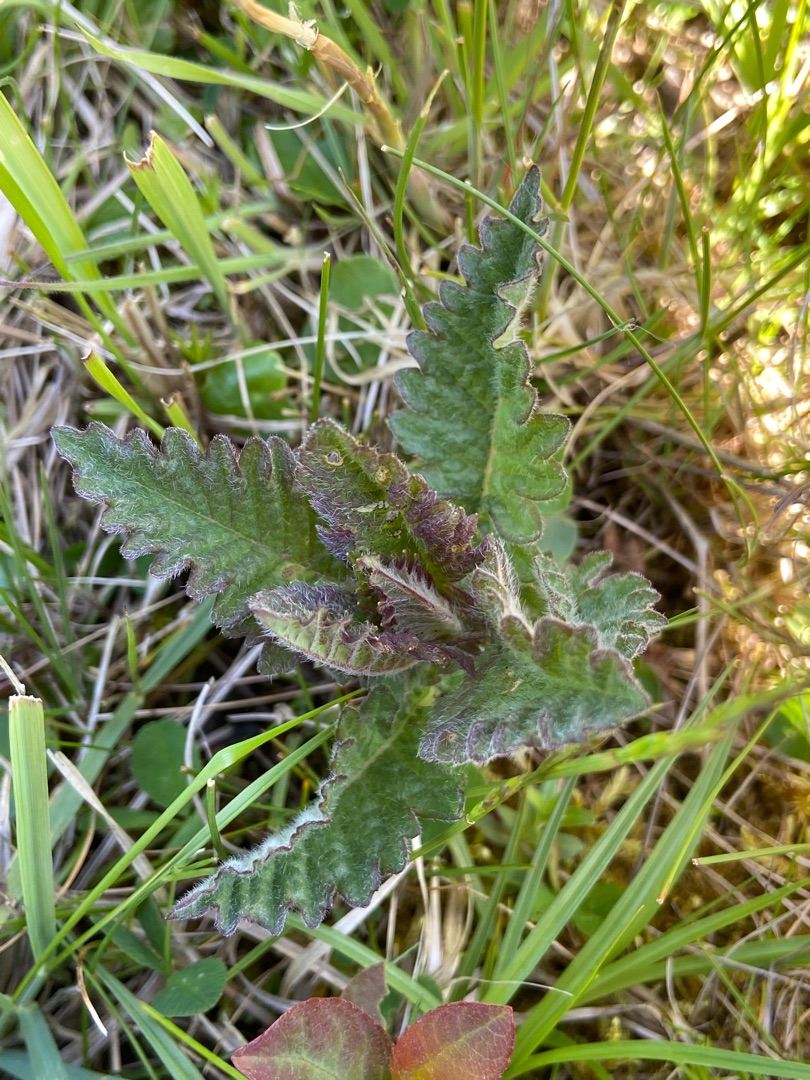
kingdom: Plantae
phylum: Tracheophyta
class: Magnoliopsida
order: Lamiales
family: Lamiaceae
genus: Lycopus
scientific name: Lycopus europaeus
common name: Sværtevæld
